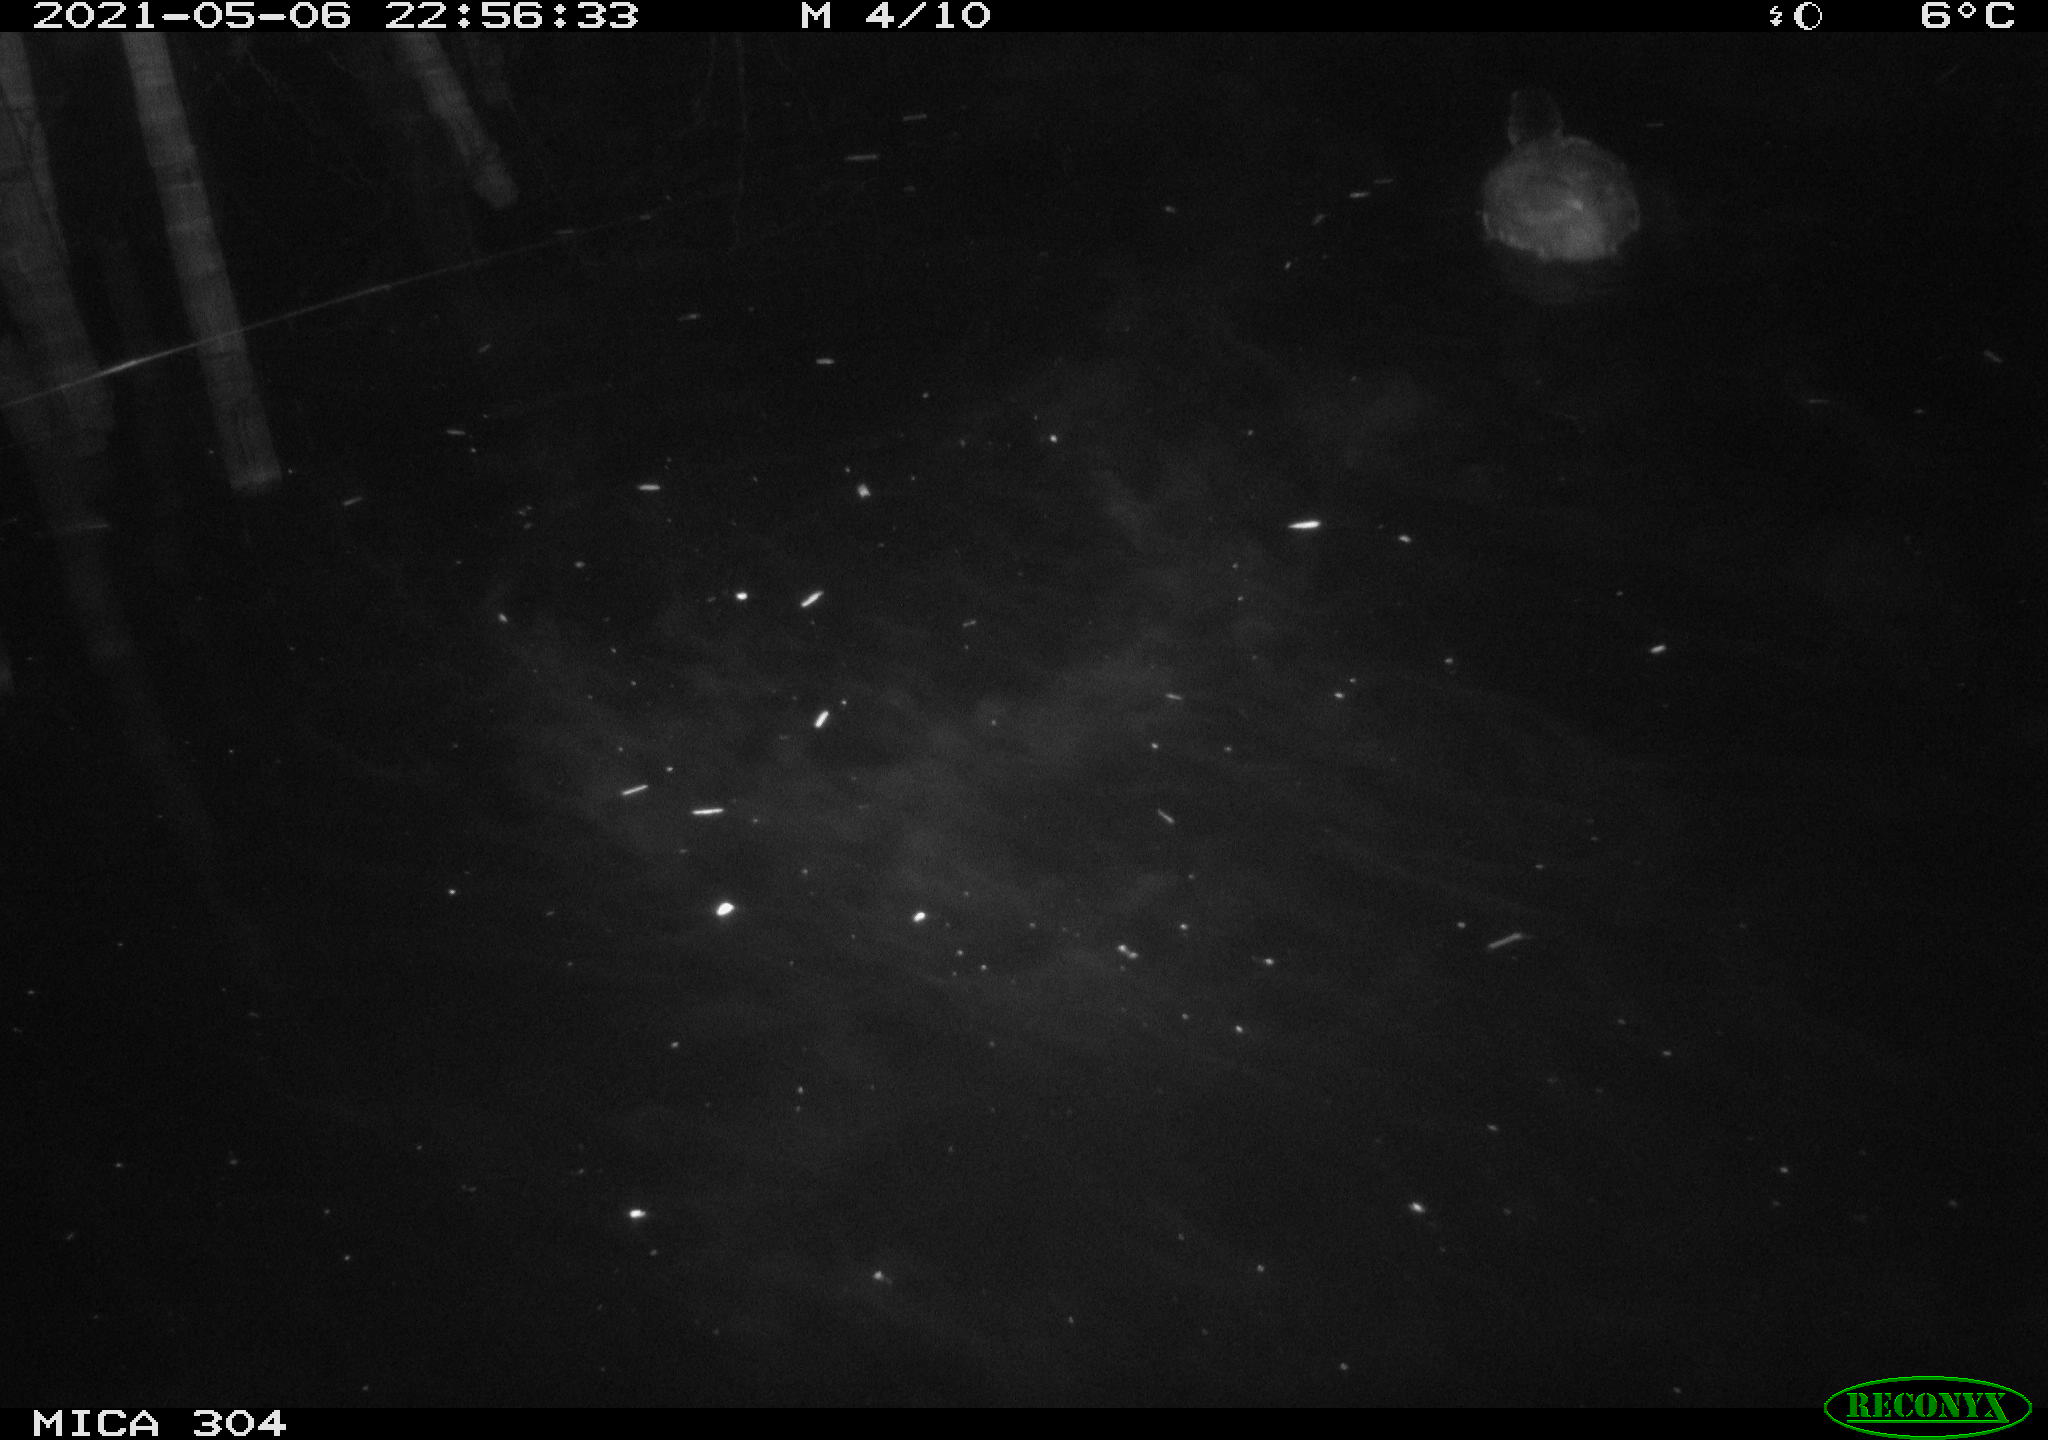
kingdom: Animalia
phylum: Chordata
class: Aves
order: Gruiformes
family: Rallidae
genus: Fulica
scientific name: Fulica atra
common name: Eurasian coot
